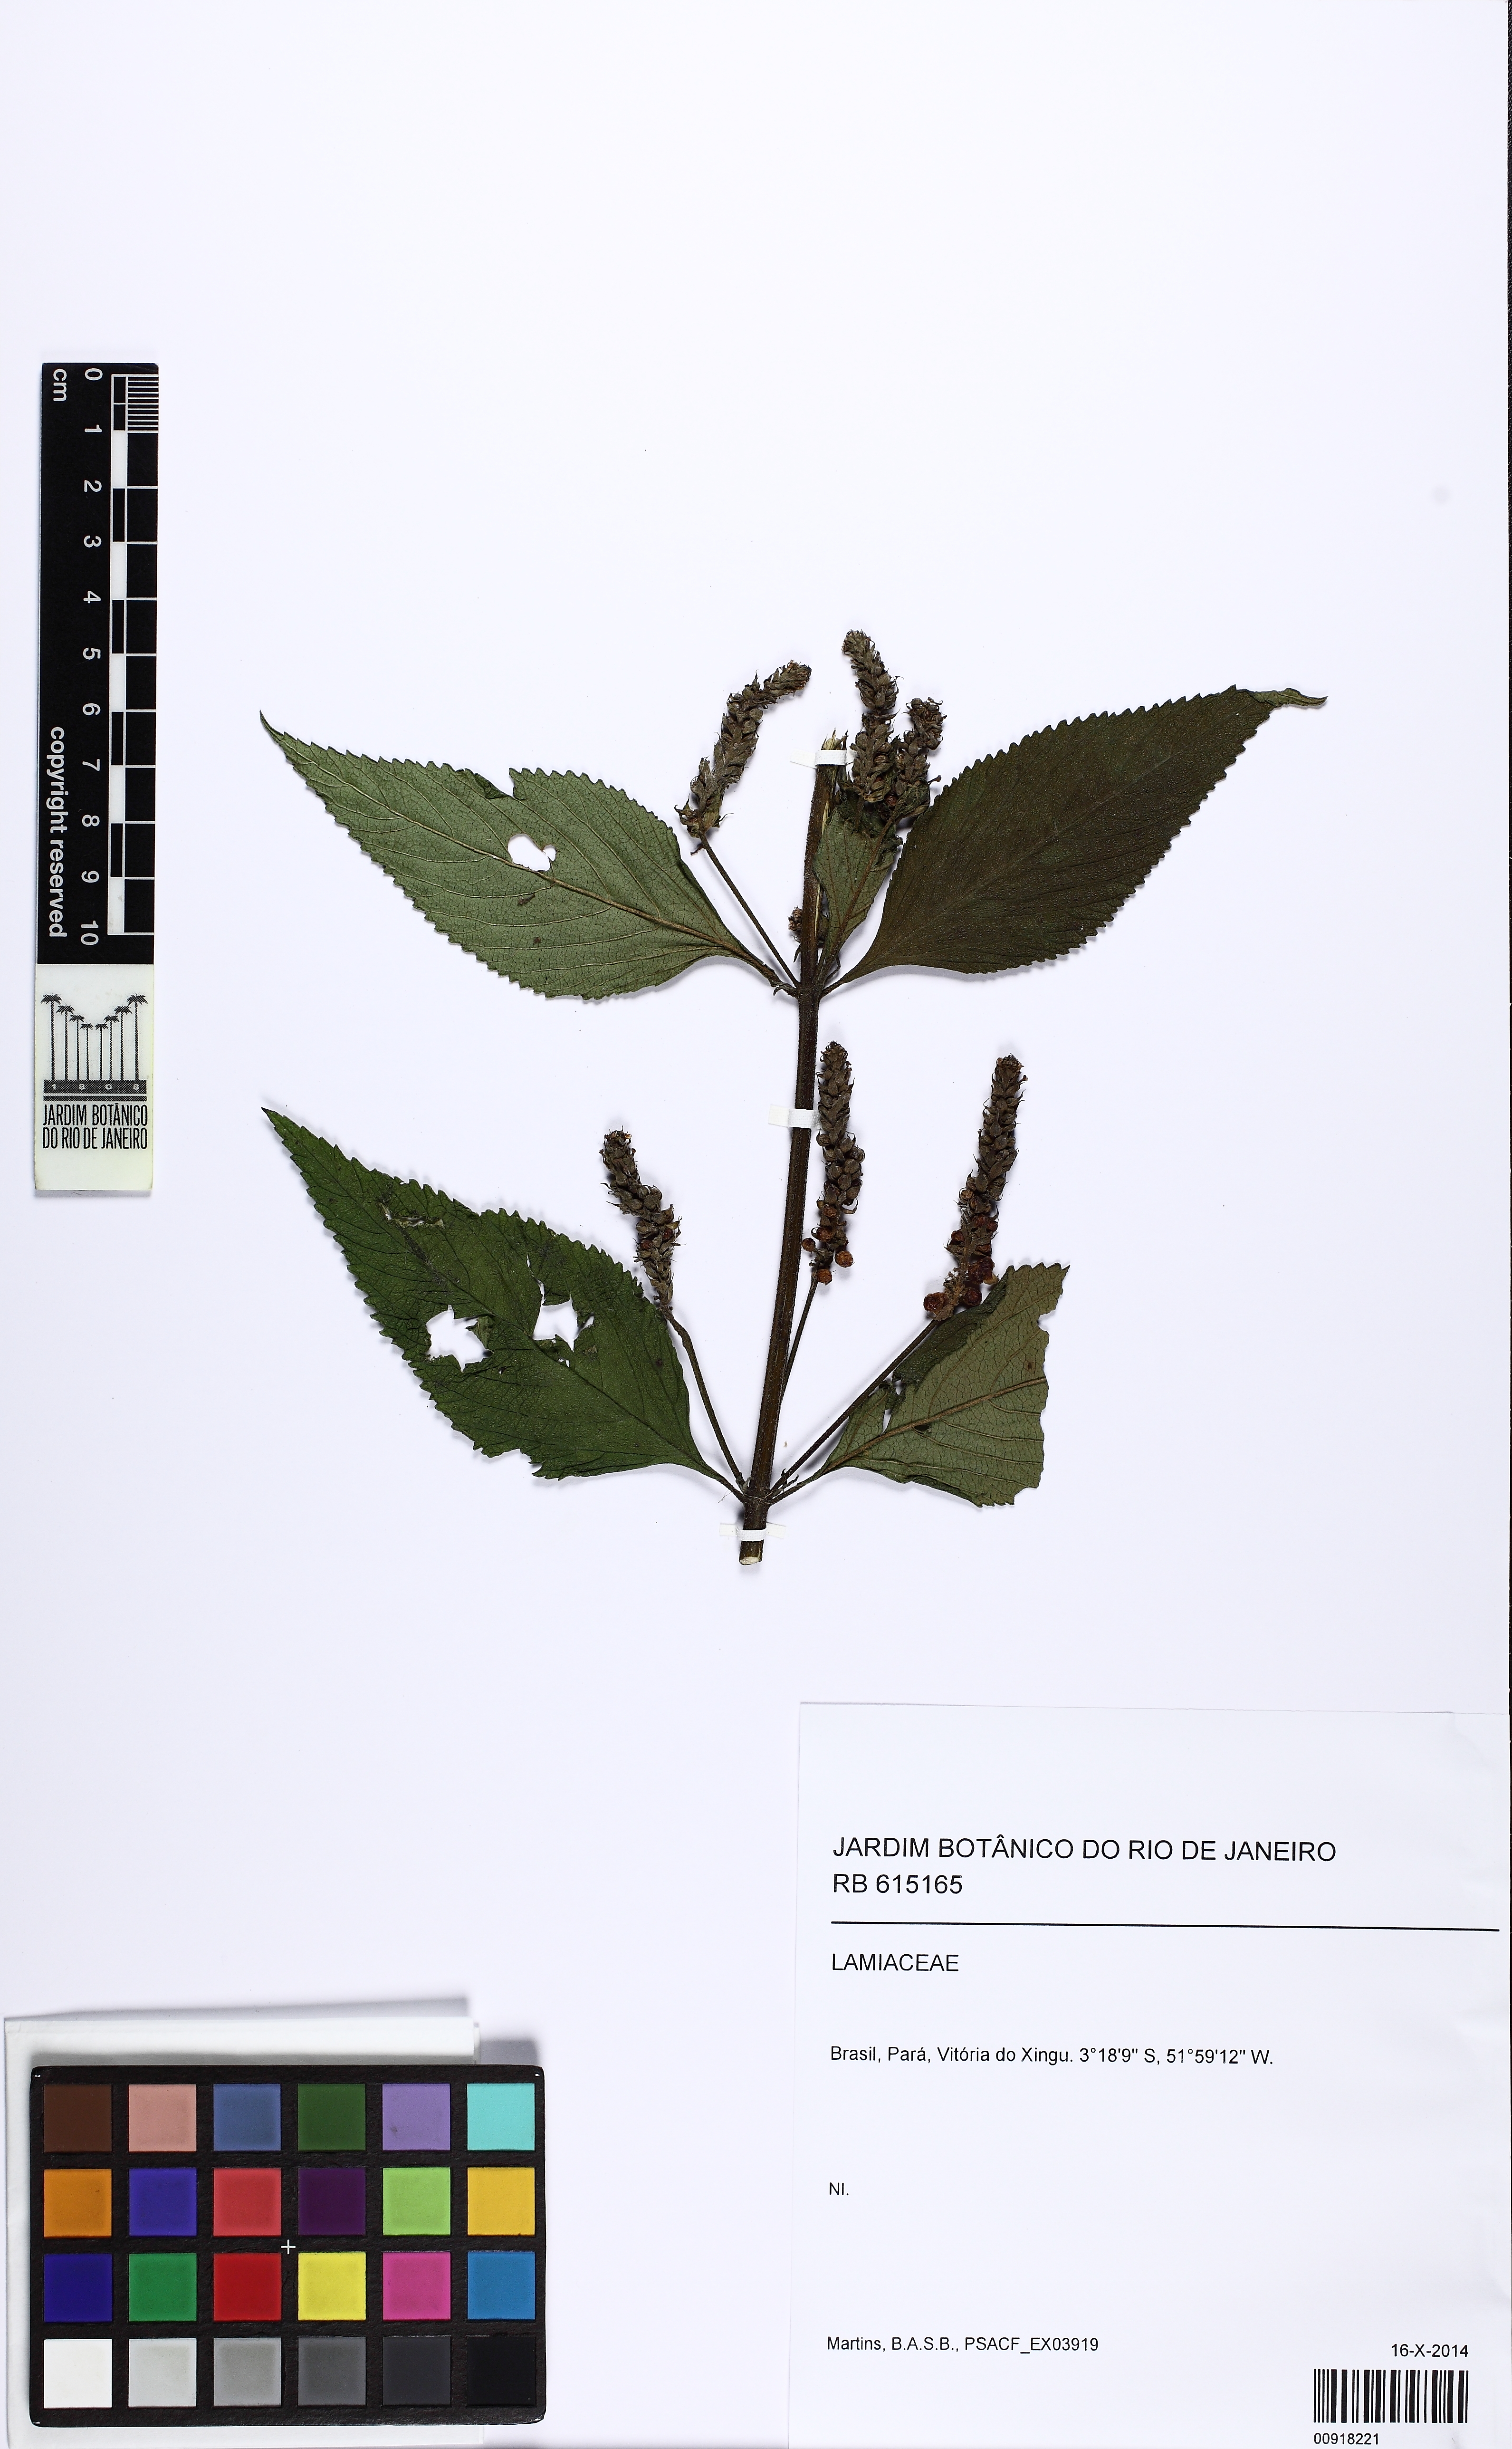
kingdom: Plantae
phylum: Tracheophyta
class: Magnoliopsida
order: Lamiales
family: Verbenaceae
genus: Lippia
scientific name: Lippia
